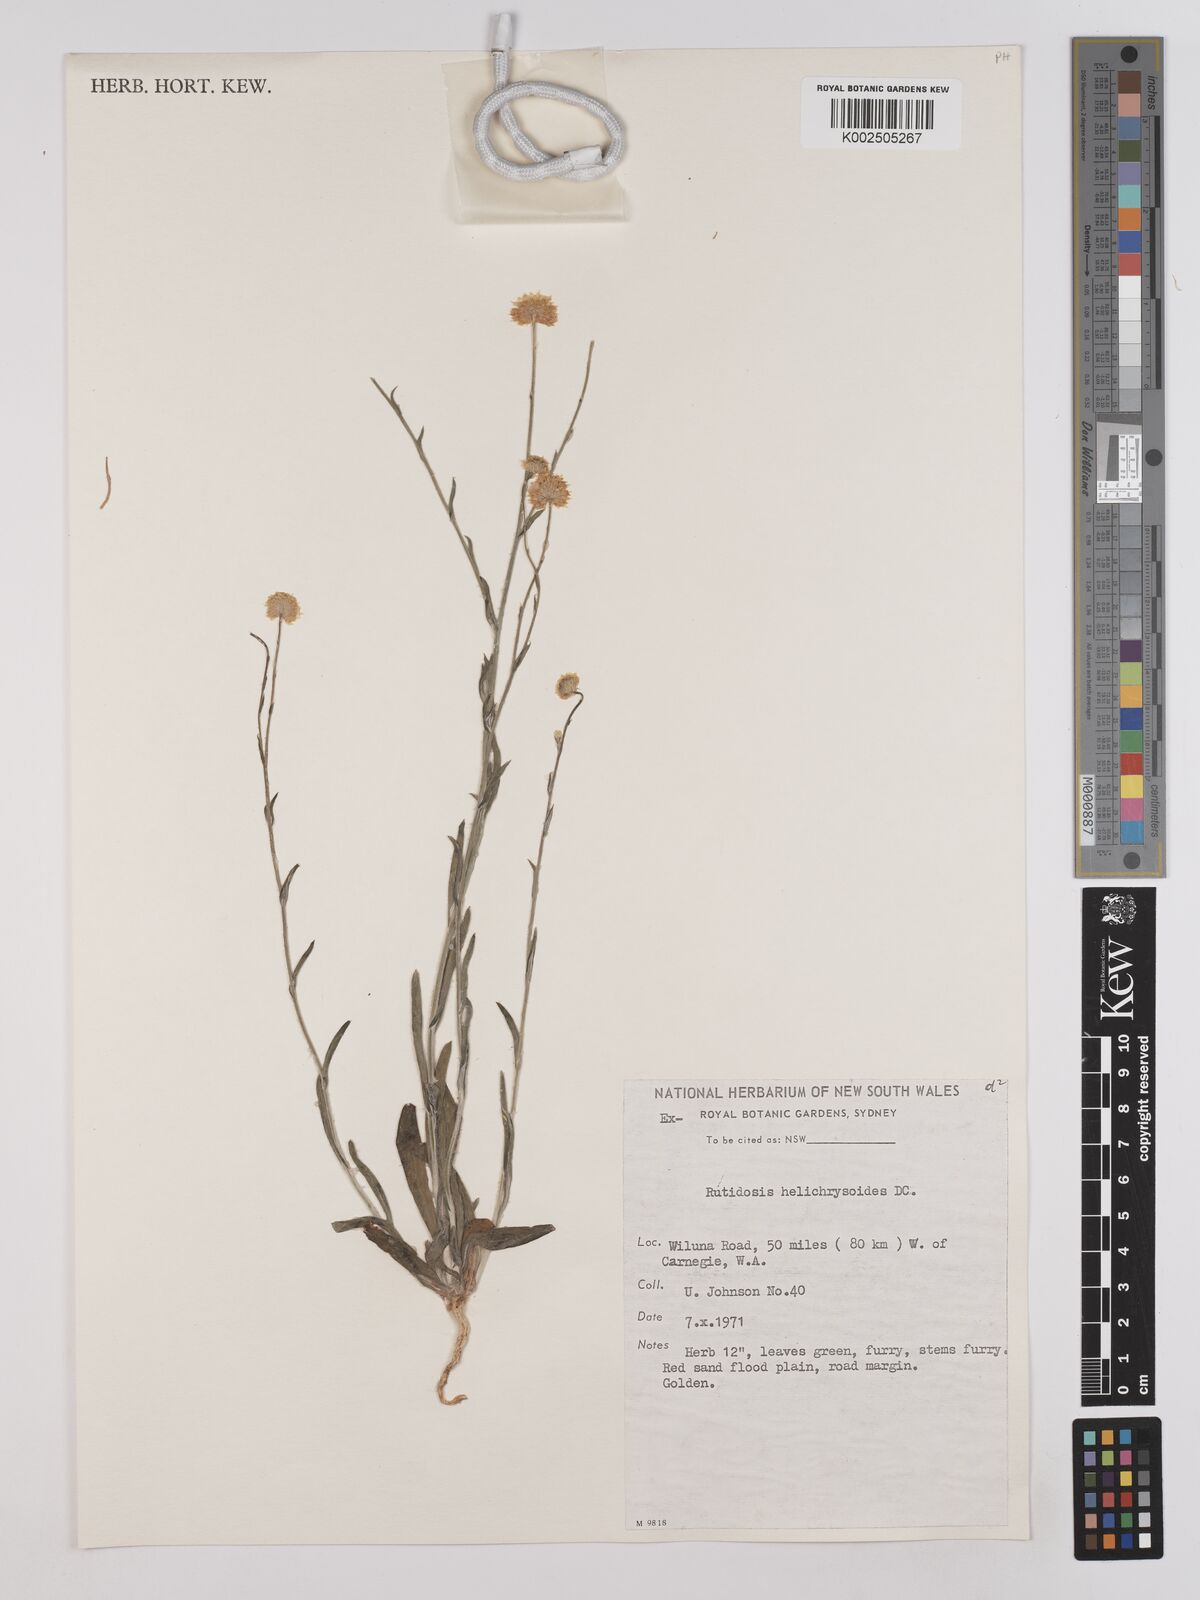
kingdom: Plantae
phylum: Tracheophyta
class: Magnoliopsida
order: Asterales
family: Asteraceae
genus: Rutidosis
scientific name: Rutidosis helichrysoides
